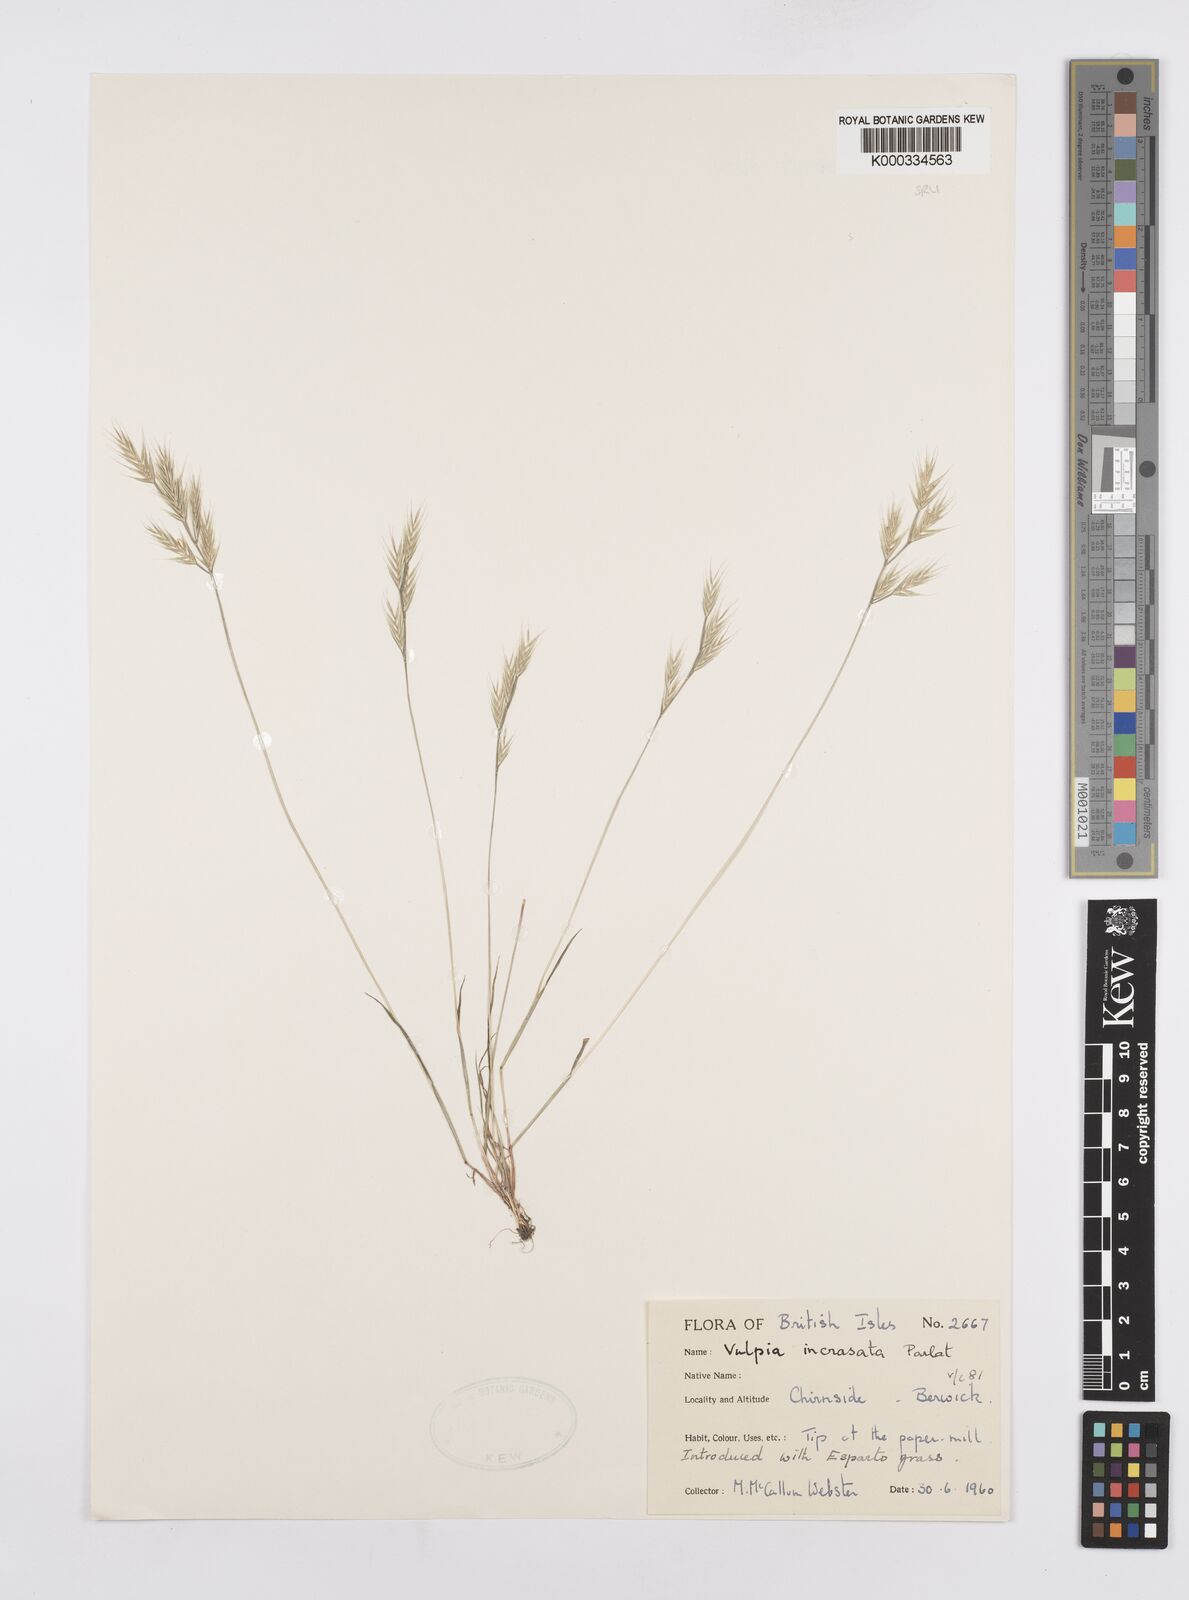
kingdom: Plantae
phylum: Tracheophyta
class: Liliopsida
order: Poales
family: Poaceae
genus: Vulpiella
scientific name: Vulpiella stipoides
